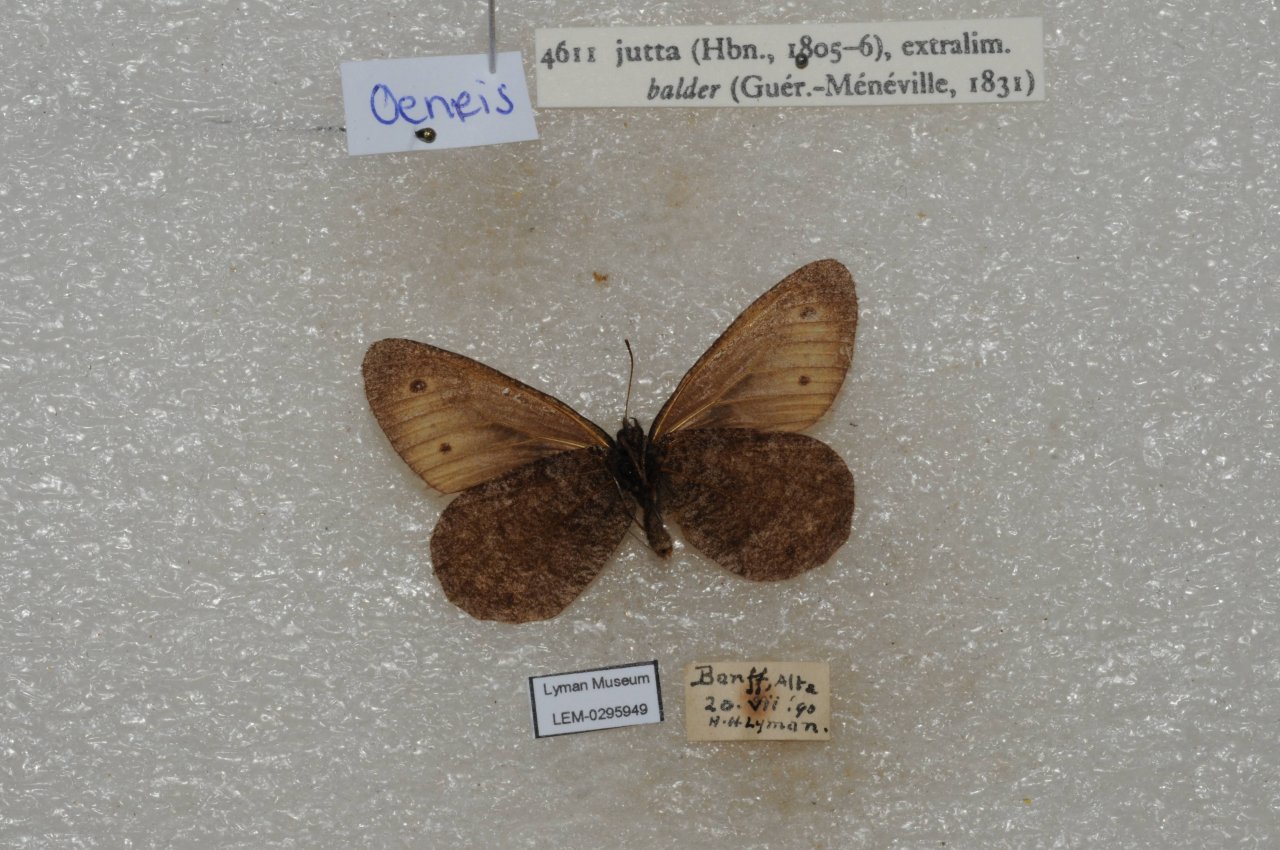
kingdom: Animalia
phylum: Arthropoda
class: Insecta
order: Lepidoptera
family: Nymphalidae
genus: Oeneis
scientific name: Oeneis jutta
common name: Jutta Arctic
